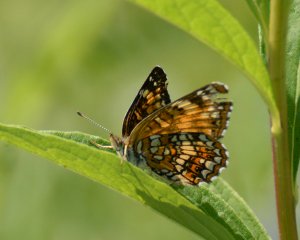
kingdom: Animalia
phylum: Arthropoda
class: Insecta
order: Lepidoptera
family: Nymphalidae
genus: Chlosyne
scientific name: Chlosyne harrisii
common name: Harris's Checkerspot
